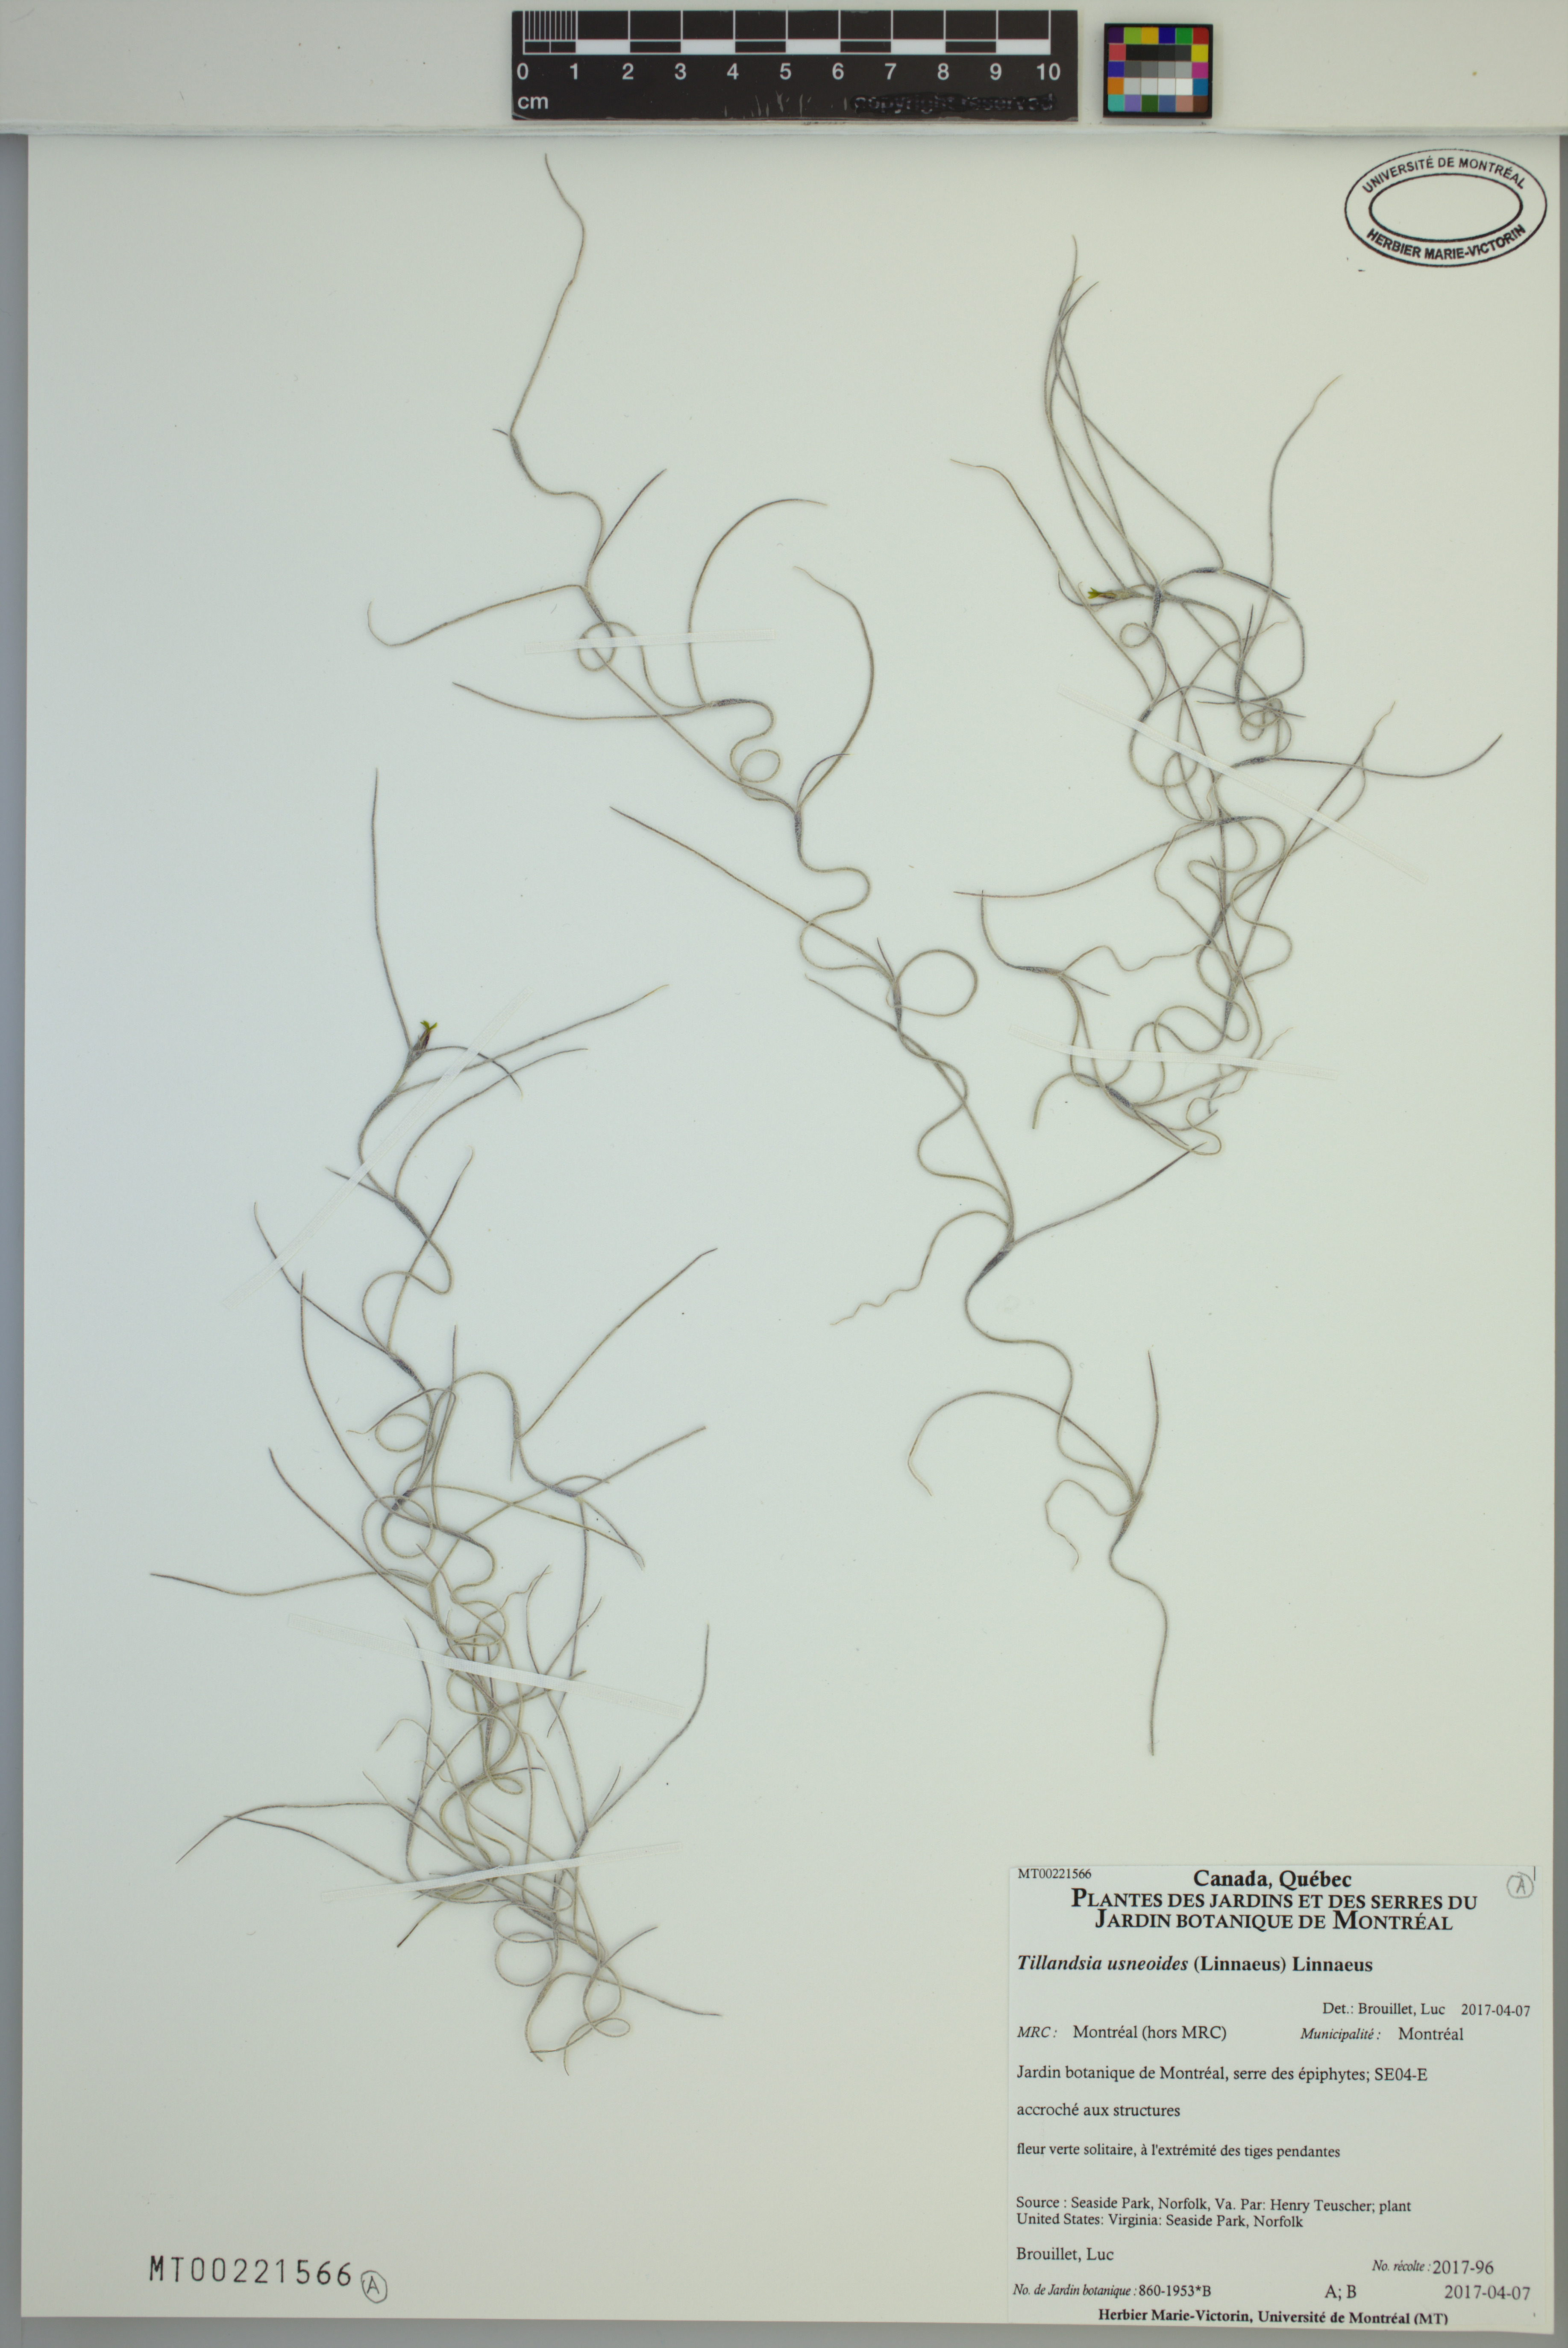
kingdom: Plantae
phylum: Tracheophyta
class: Liliopsida
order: Poales
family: Bromeliaceae
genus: Tillandsia
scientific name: Tillandsia usneoides
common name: Spanish moss
